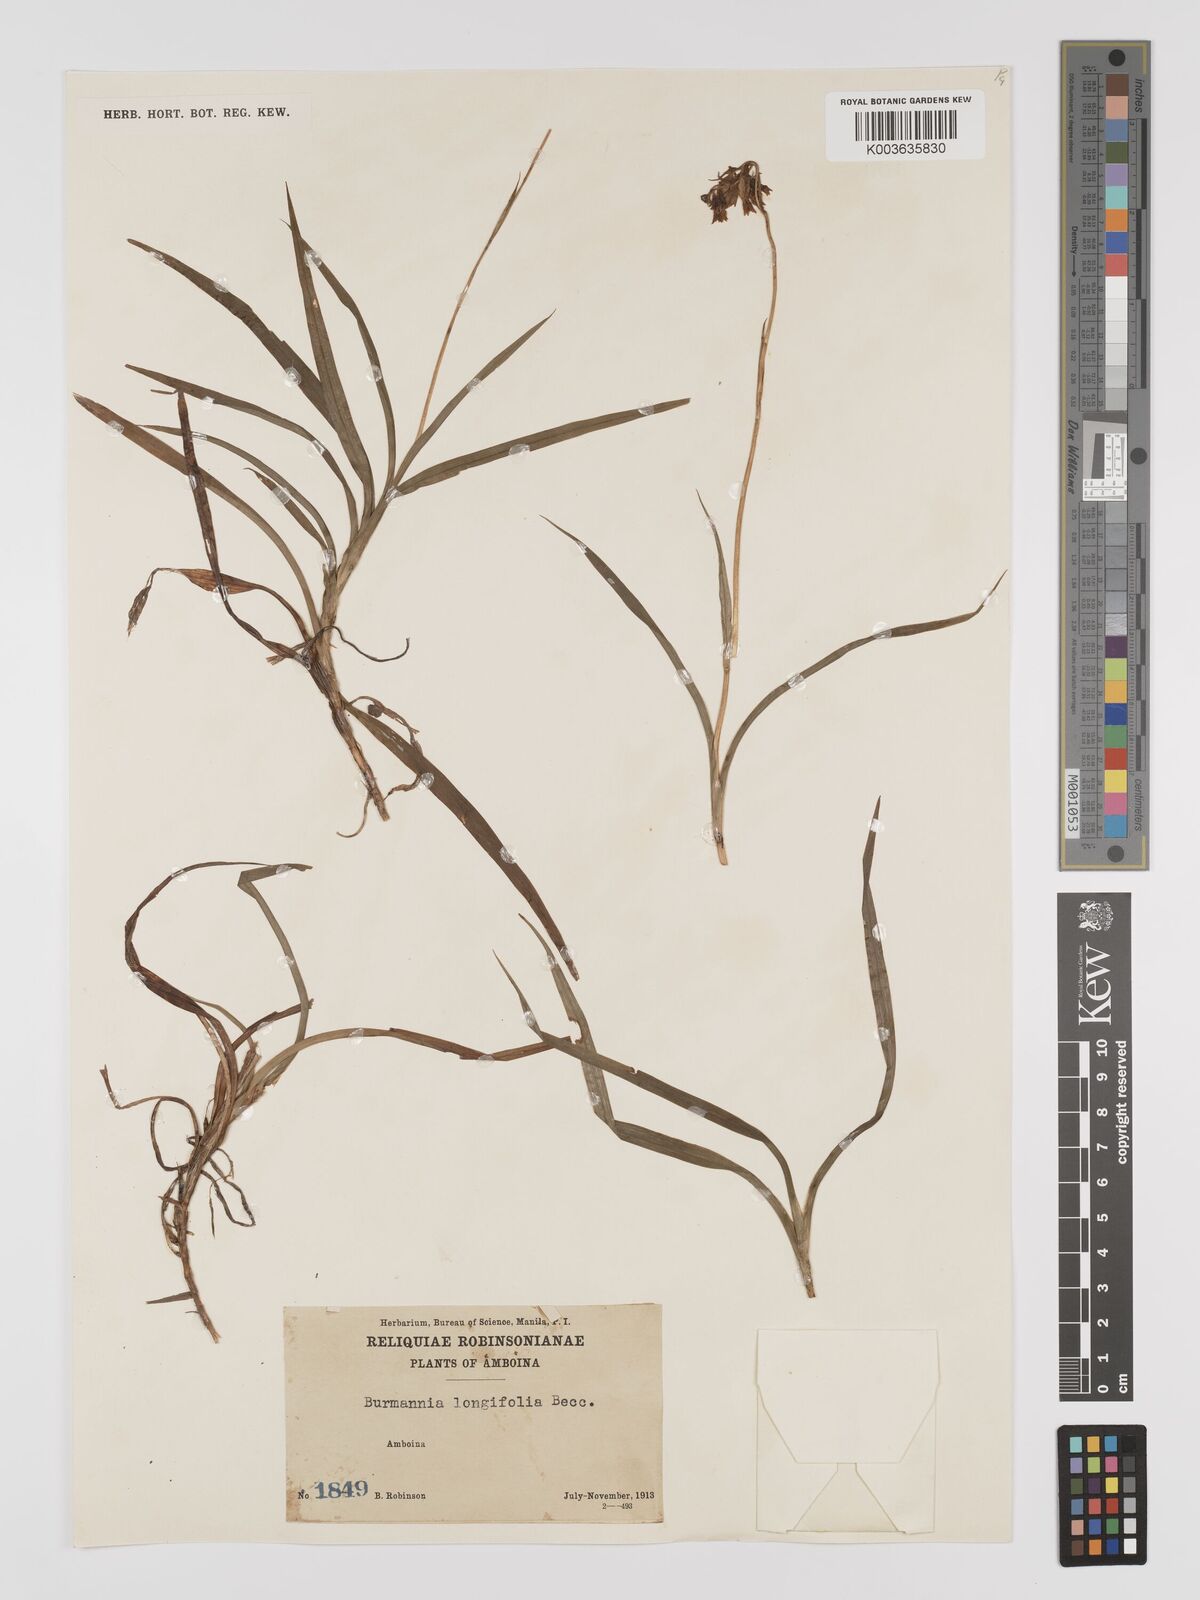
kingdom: Plantae
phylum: Tracheophyta
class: Liliopsida
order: Dioscoreales
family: Burmanniaceae
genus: Burmannia
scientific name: Burmannia longifolia
